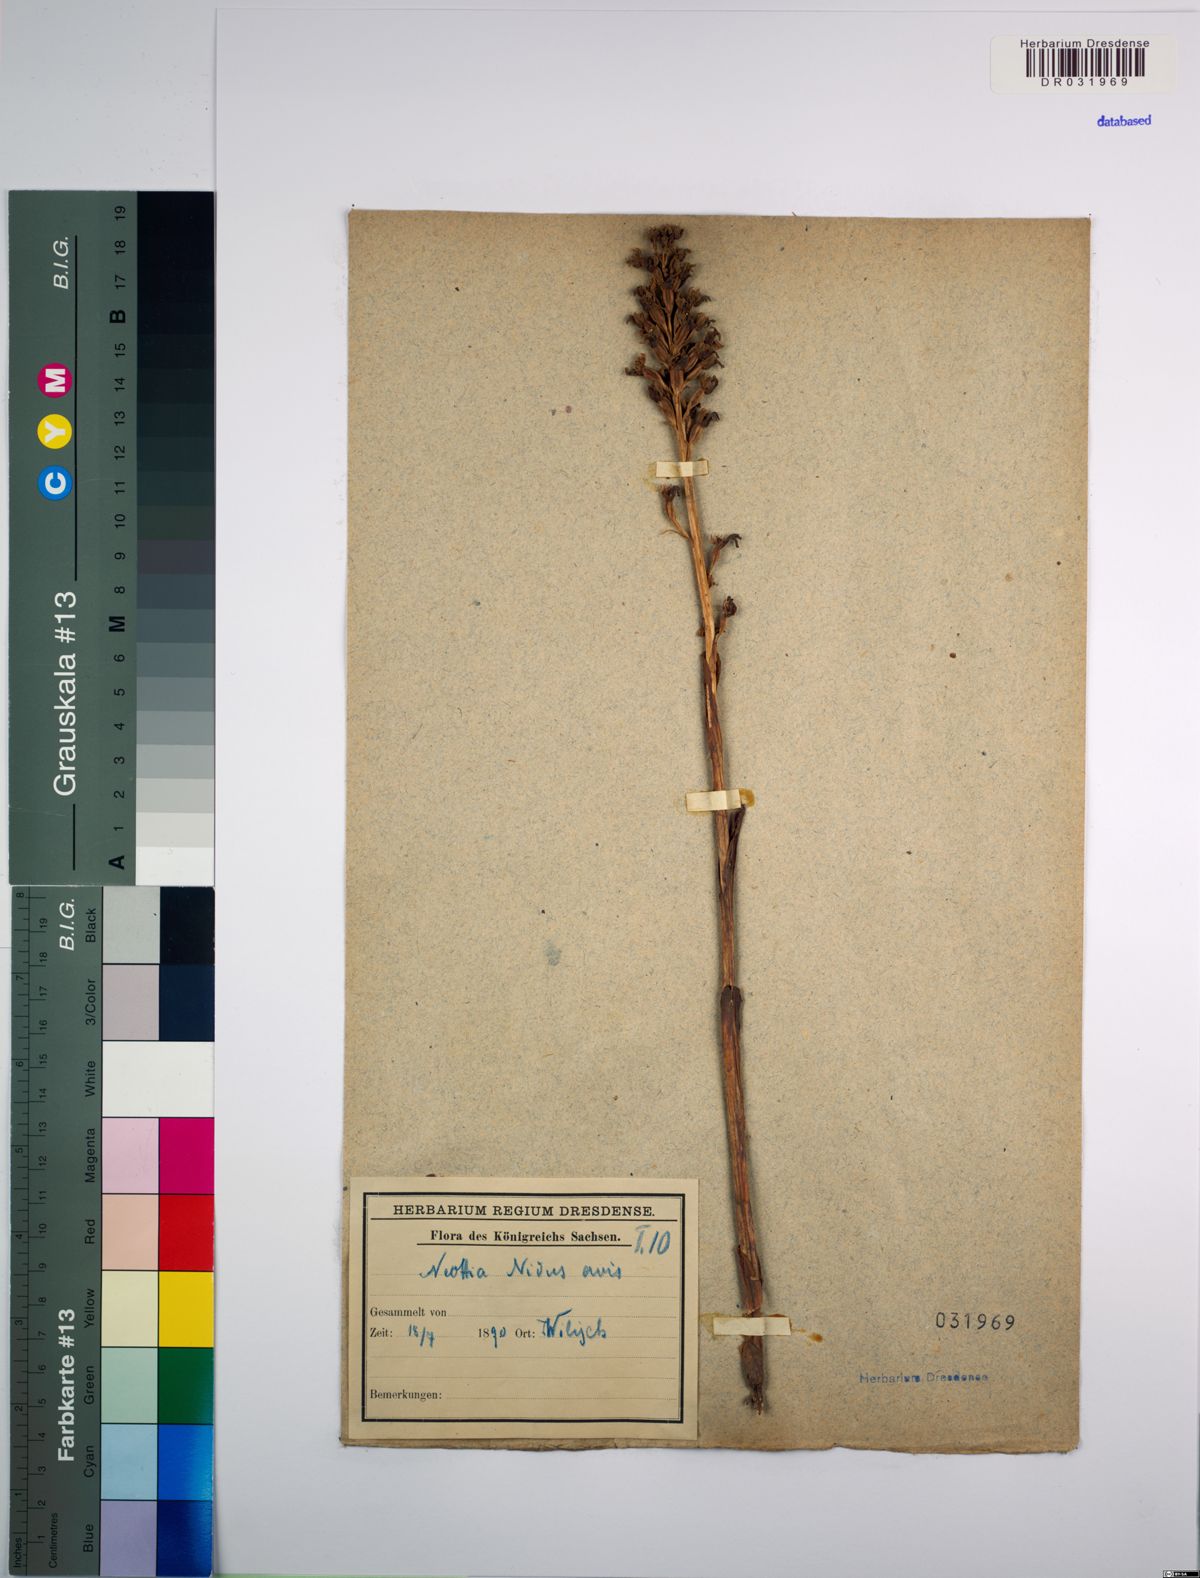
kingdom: Plantae
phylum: Tracheophyta
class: Liliopsida
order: Asparagales
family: Orchidaceae
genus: Neottia
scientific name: Neottia nidus-avis
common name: Bird's-nest orchid
